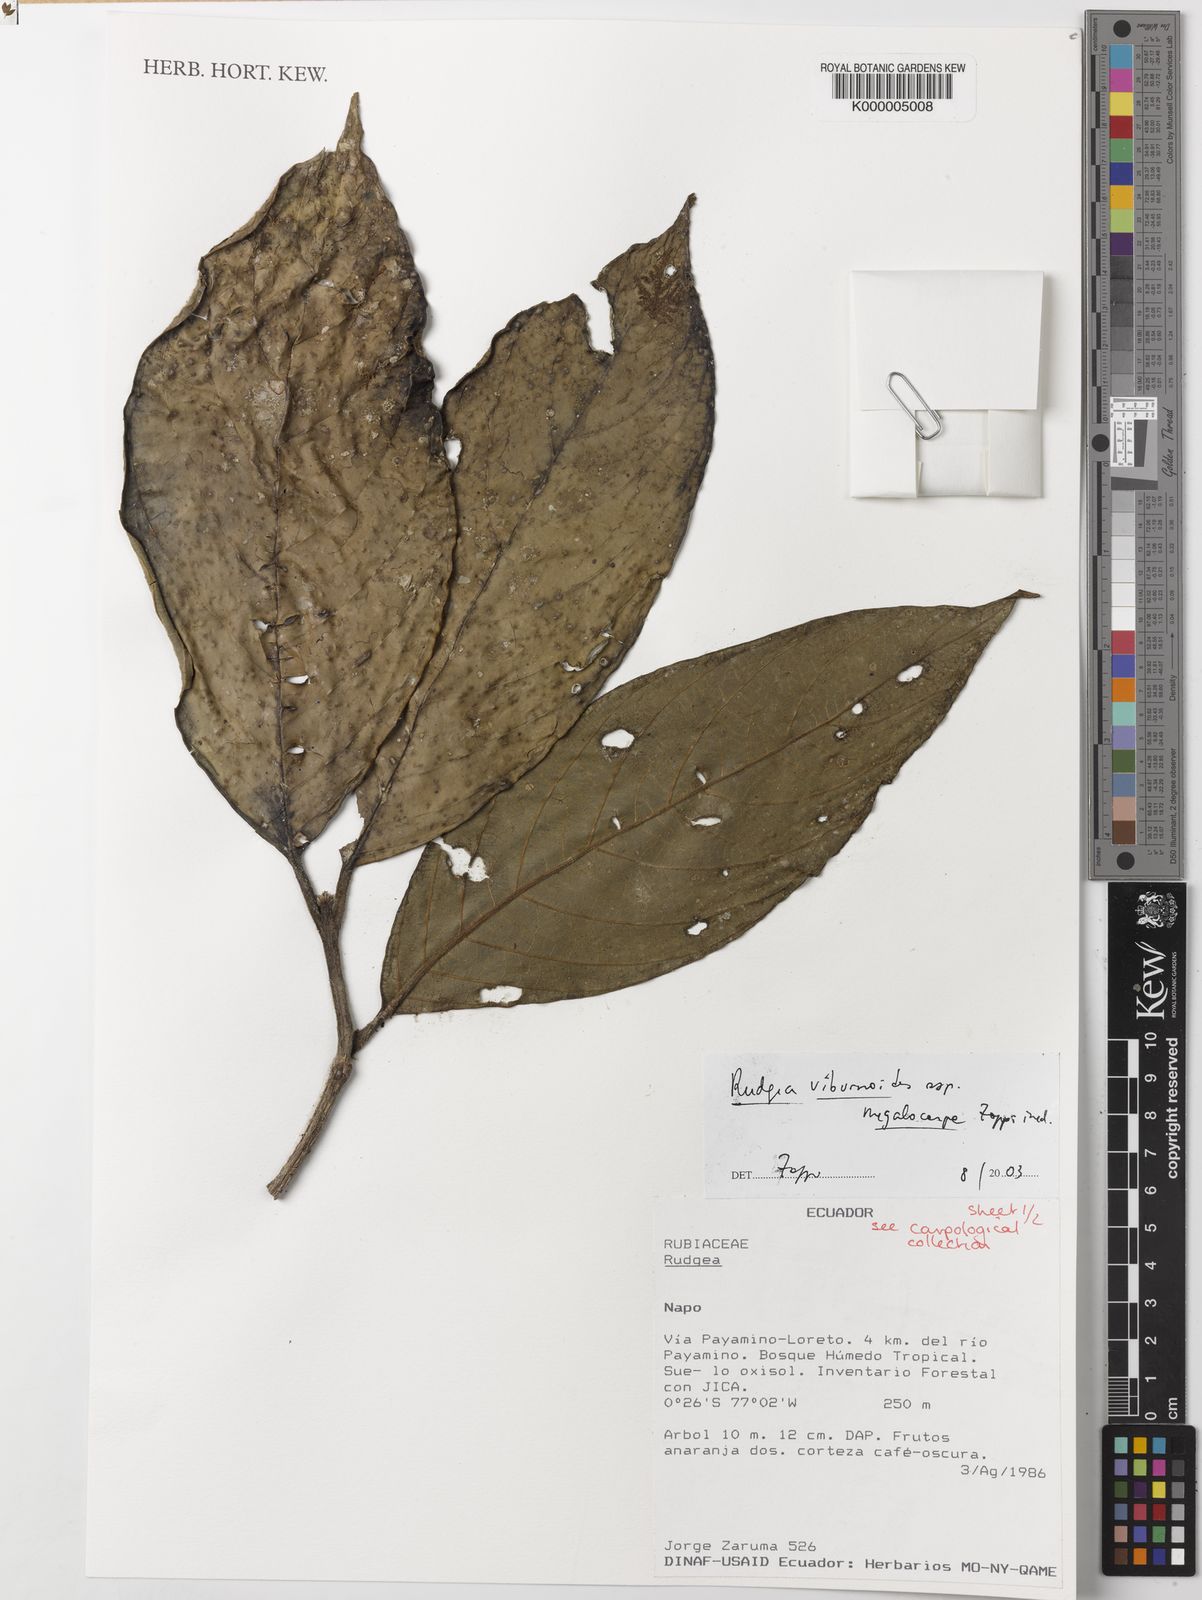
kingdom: Plantae
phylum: Tracheophyta
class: Magnoliopsida
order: Gentianales
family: Rubiaceae
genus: Rudgea
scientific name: Rudgea viburnoides
